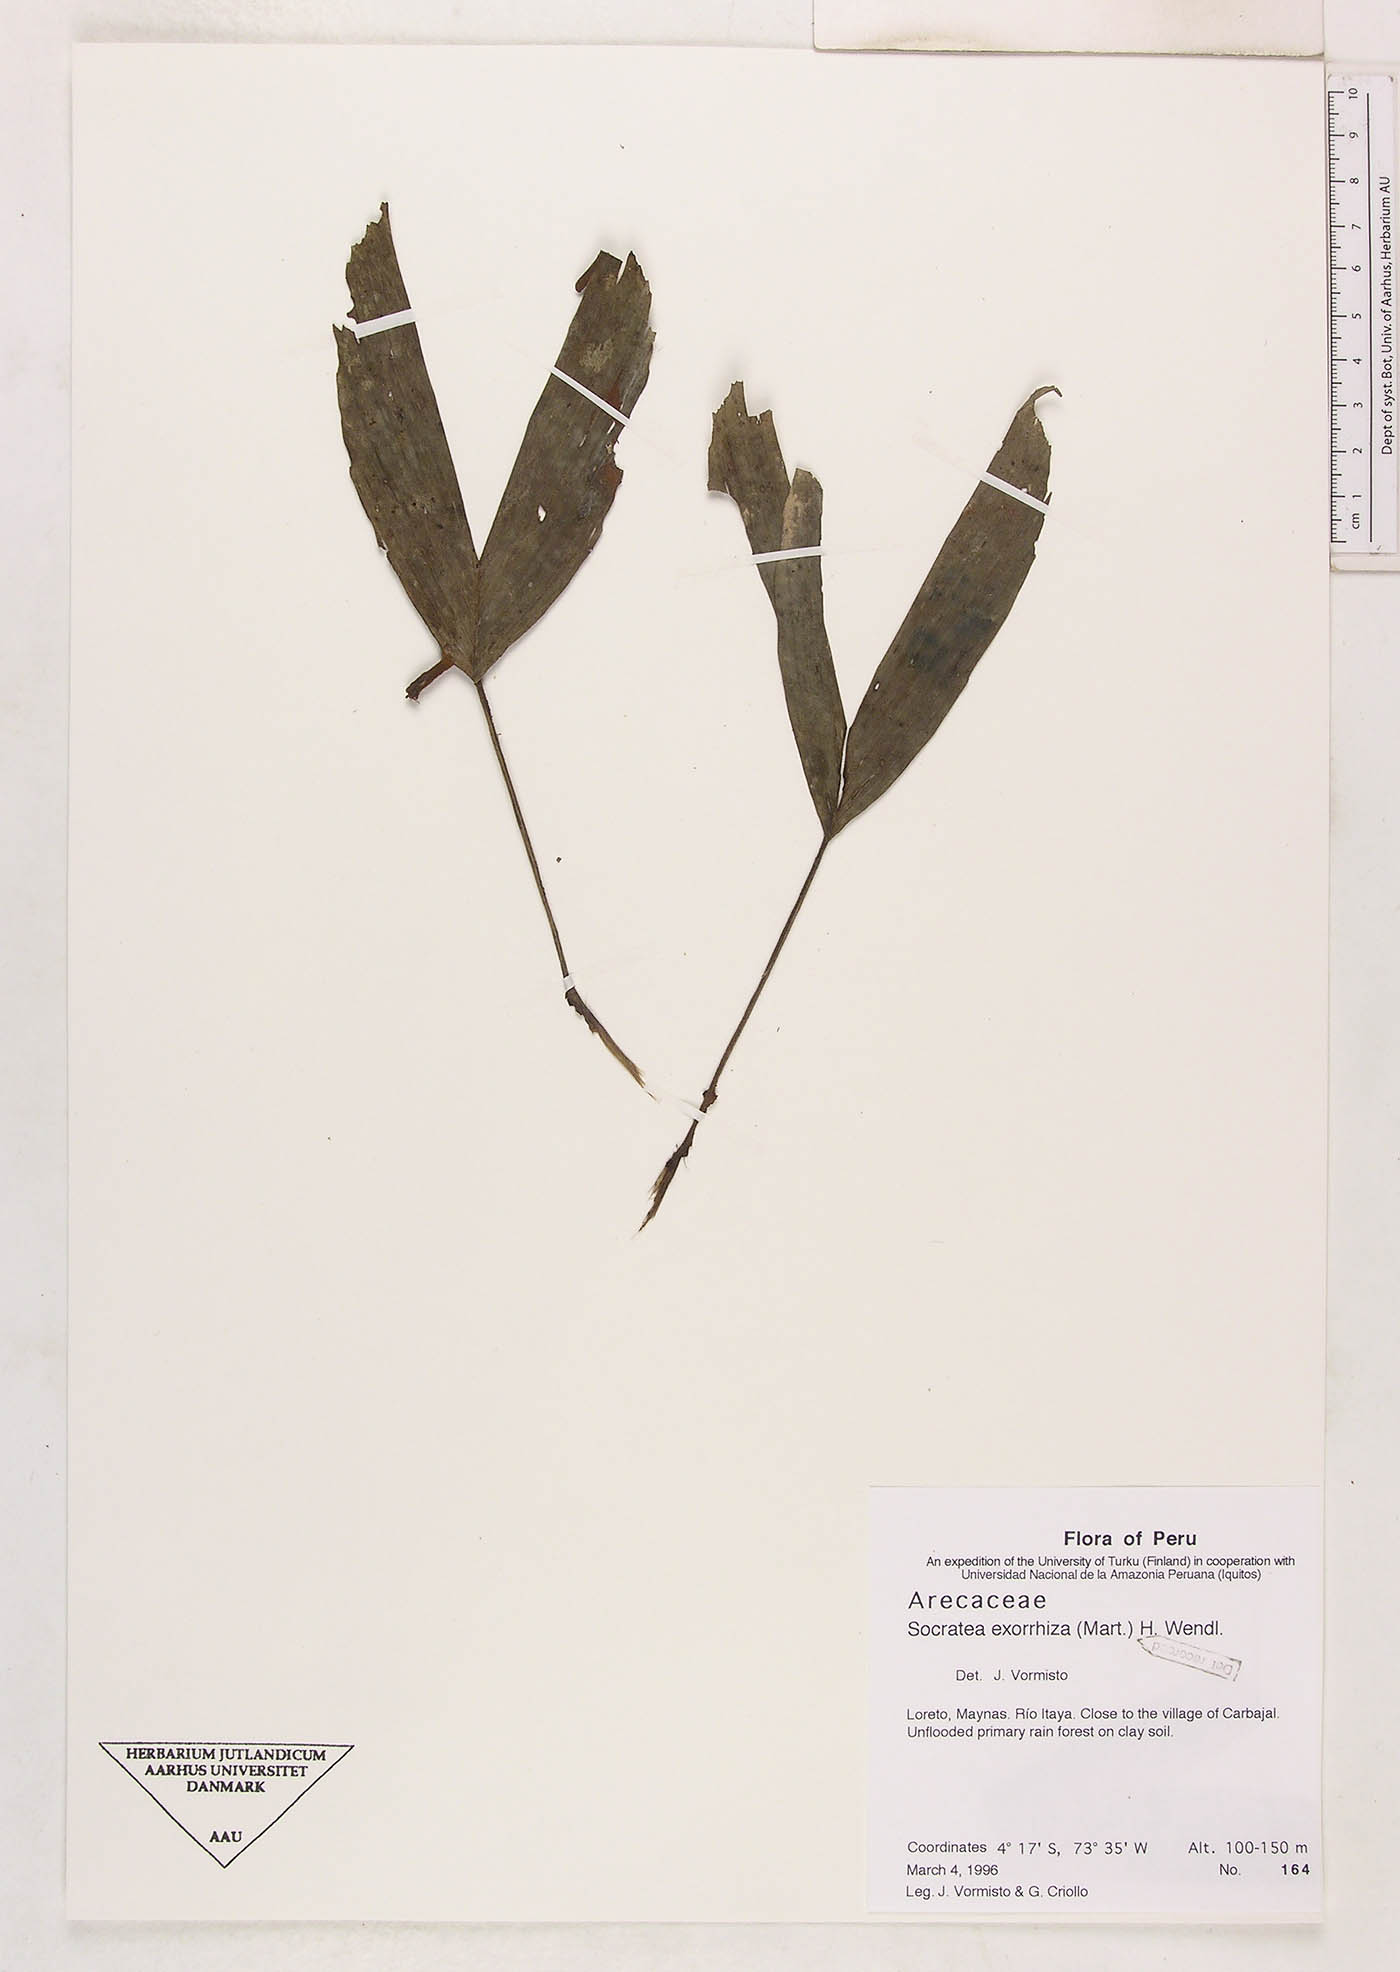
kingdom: Plantae
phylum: Tracheophyta
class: Liliopsida
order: Arecales
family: Arecaceae
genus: Socratea
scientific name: Socratea exorrhiza
